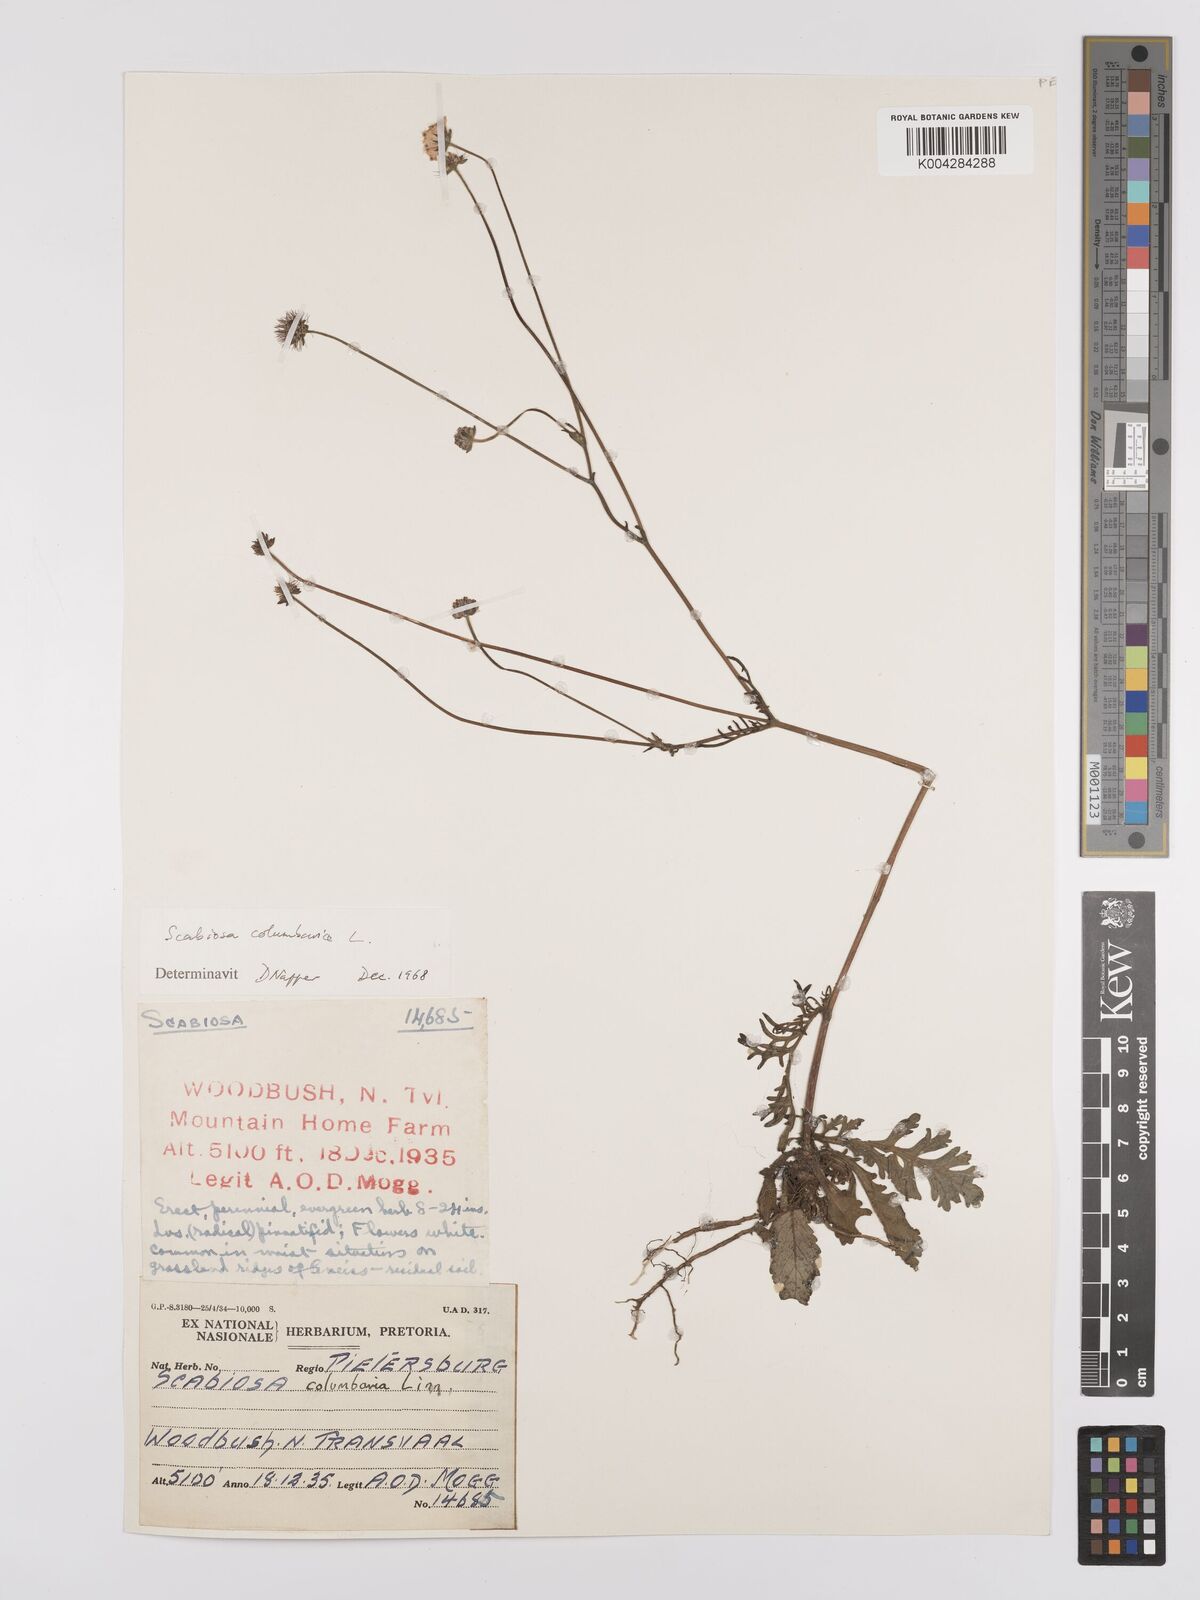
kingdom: Plantae
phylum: Tracheophyta
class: Magnoliopsida
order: Dipsacales
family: Caprifoliaceae
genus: Scabiosa
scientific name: Scabiosa columbaria
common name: Small scabious
